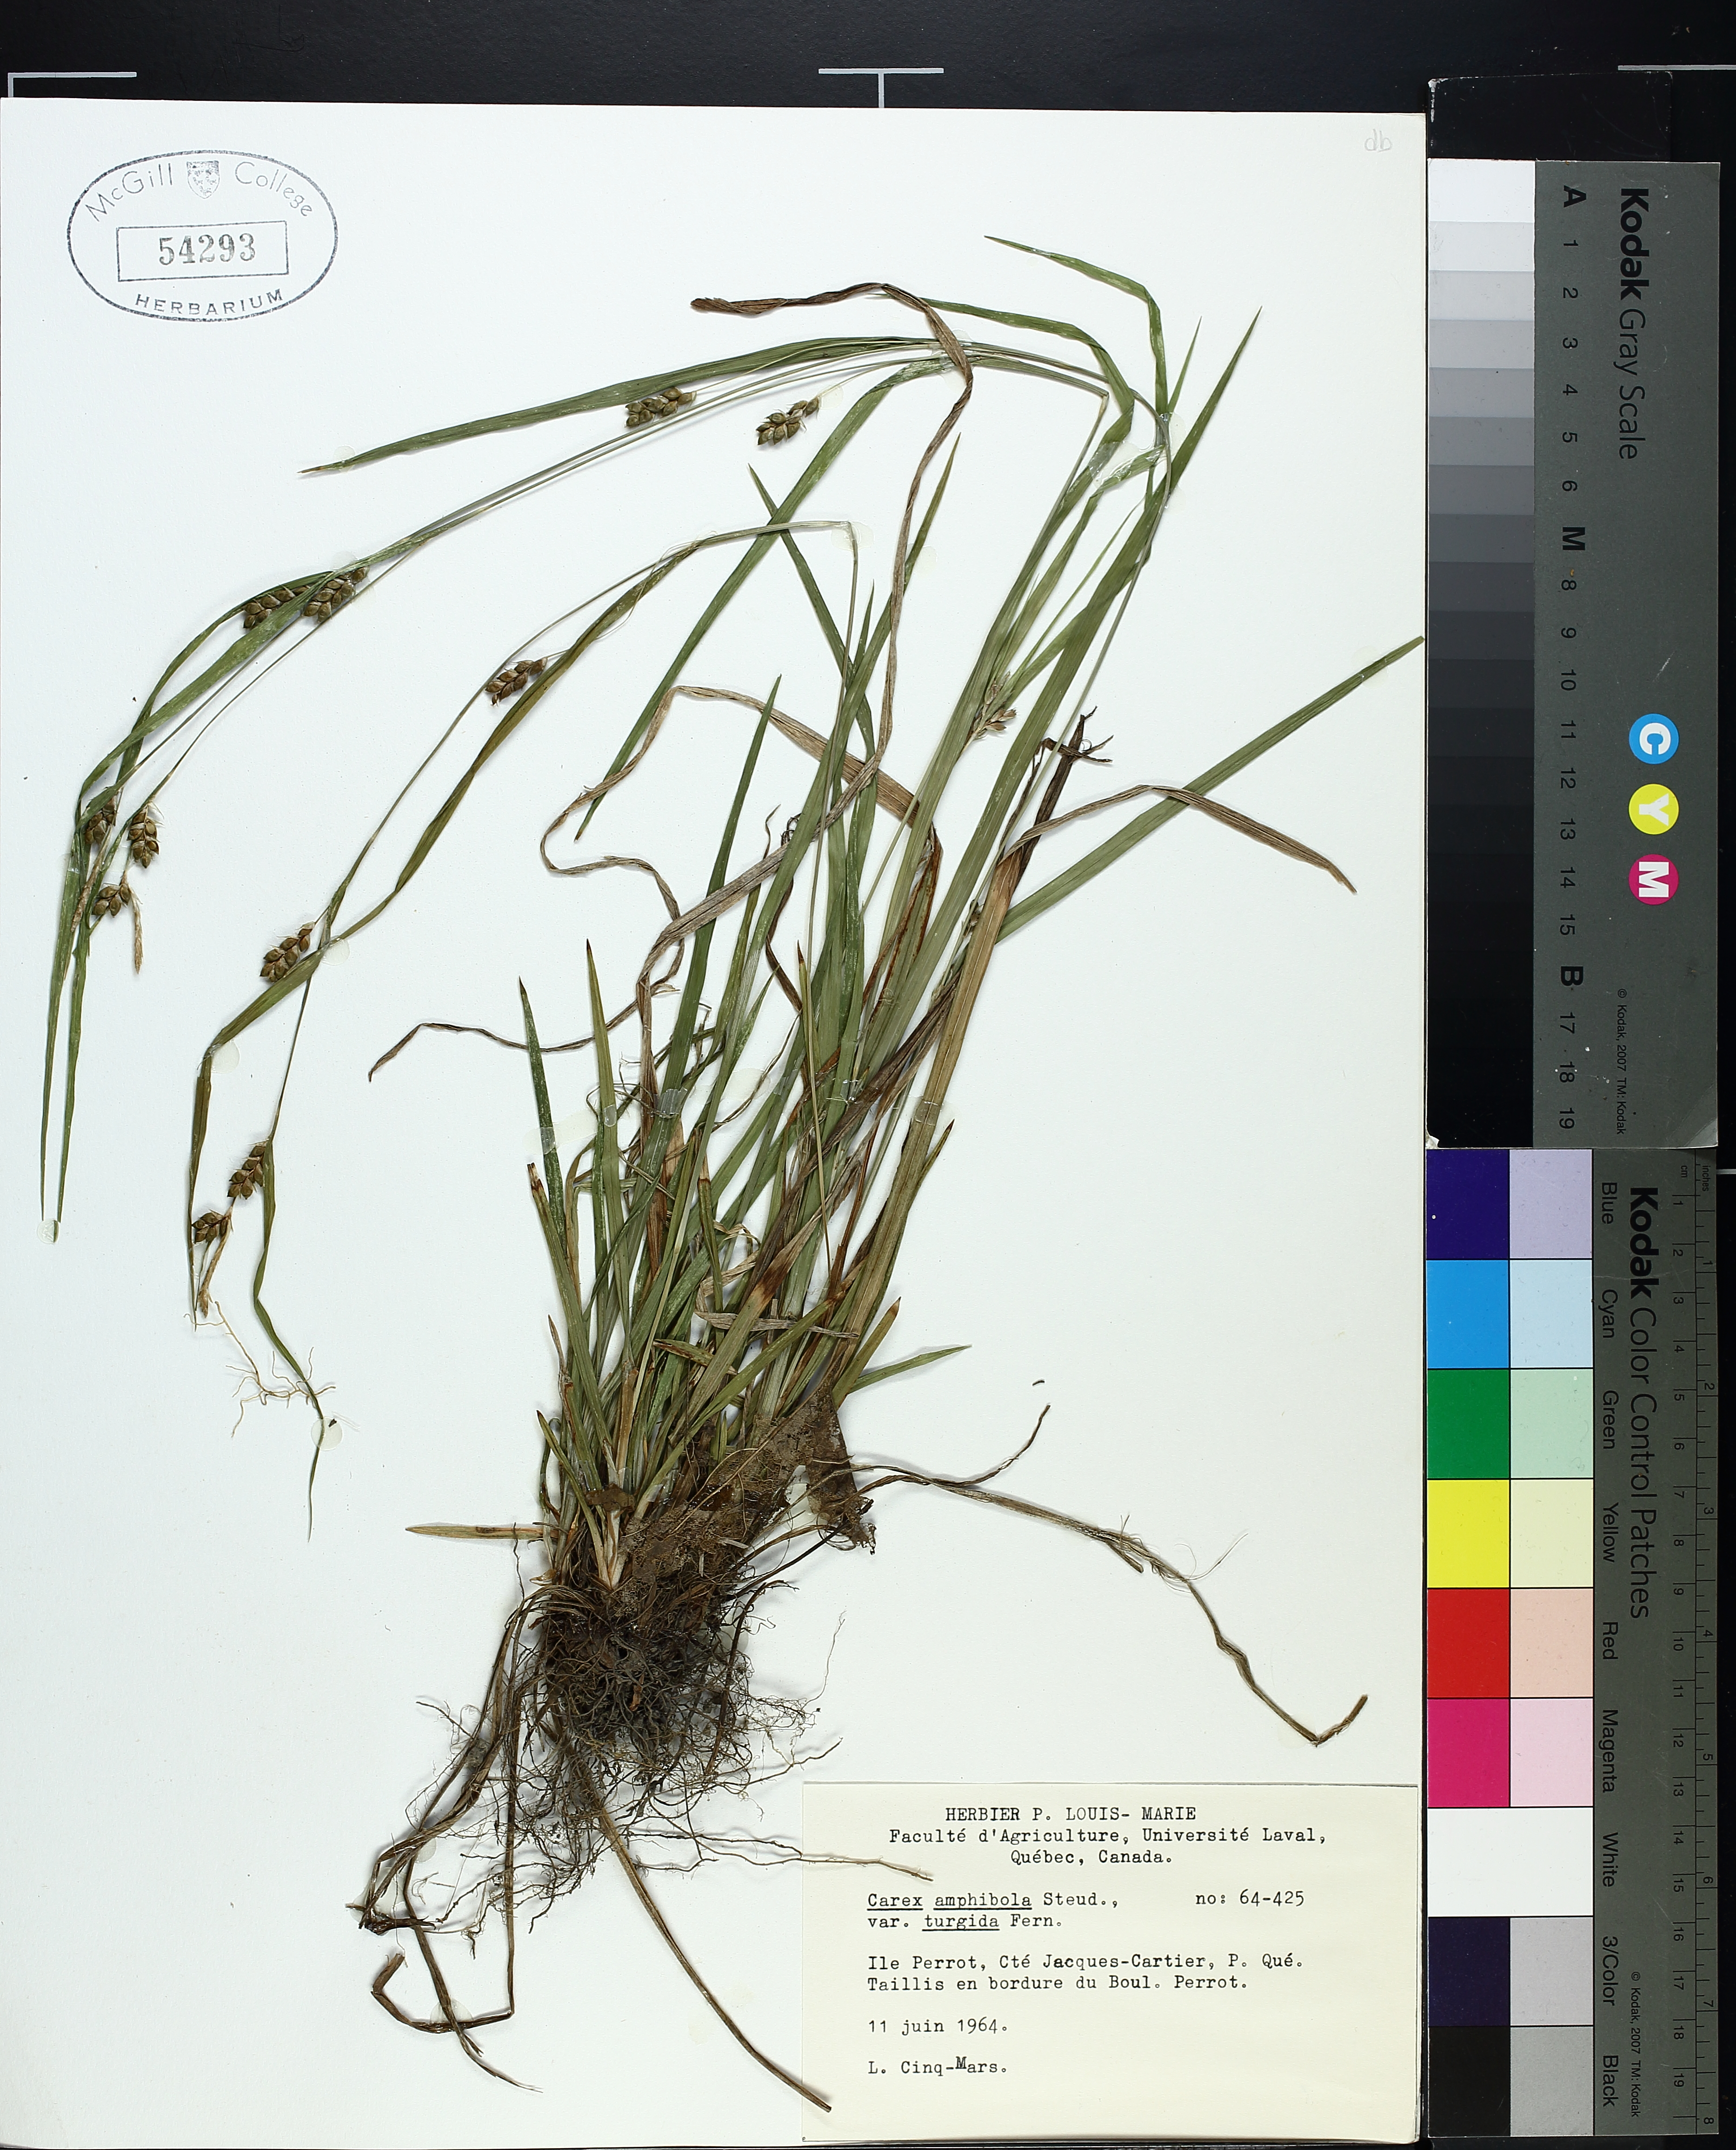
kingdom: Plantae
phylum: Tracheophyta
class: Liliopsida
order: Poales
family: Cyperaceae
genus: Carex
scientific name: Carex grisea
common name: Eastern narrow-leaved sedge
